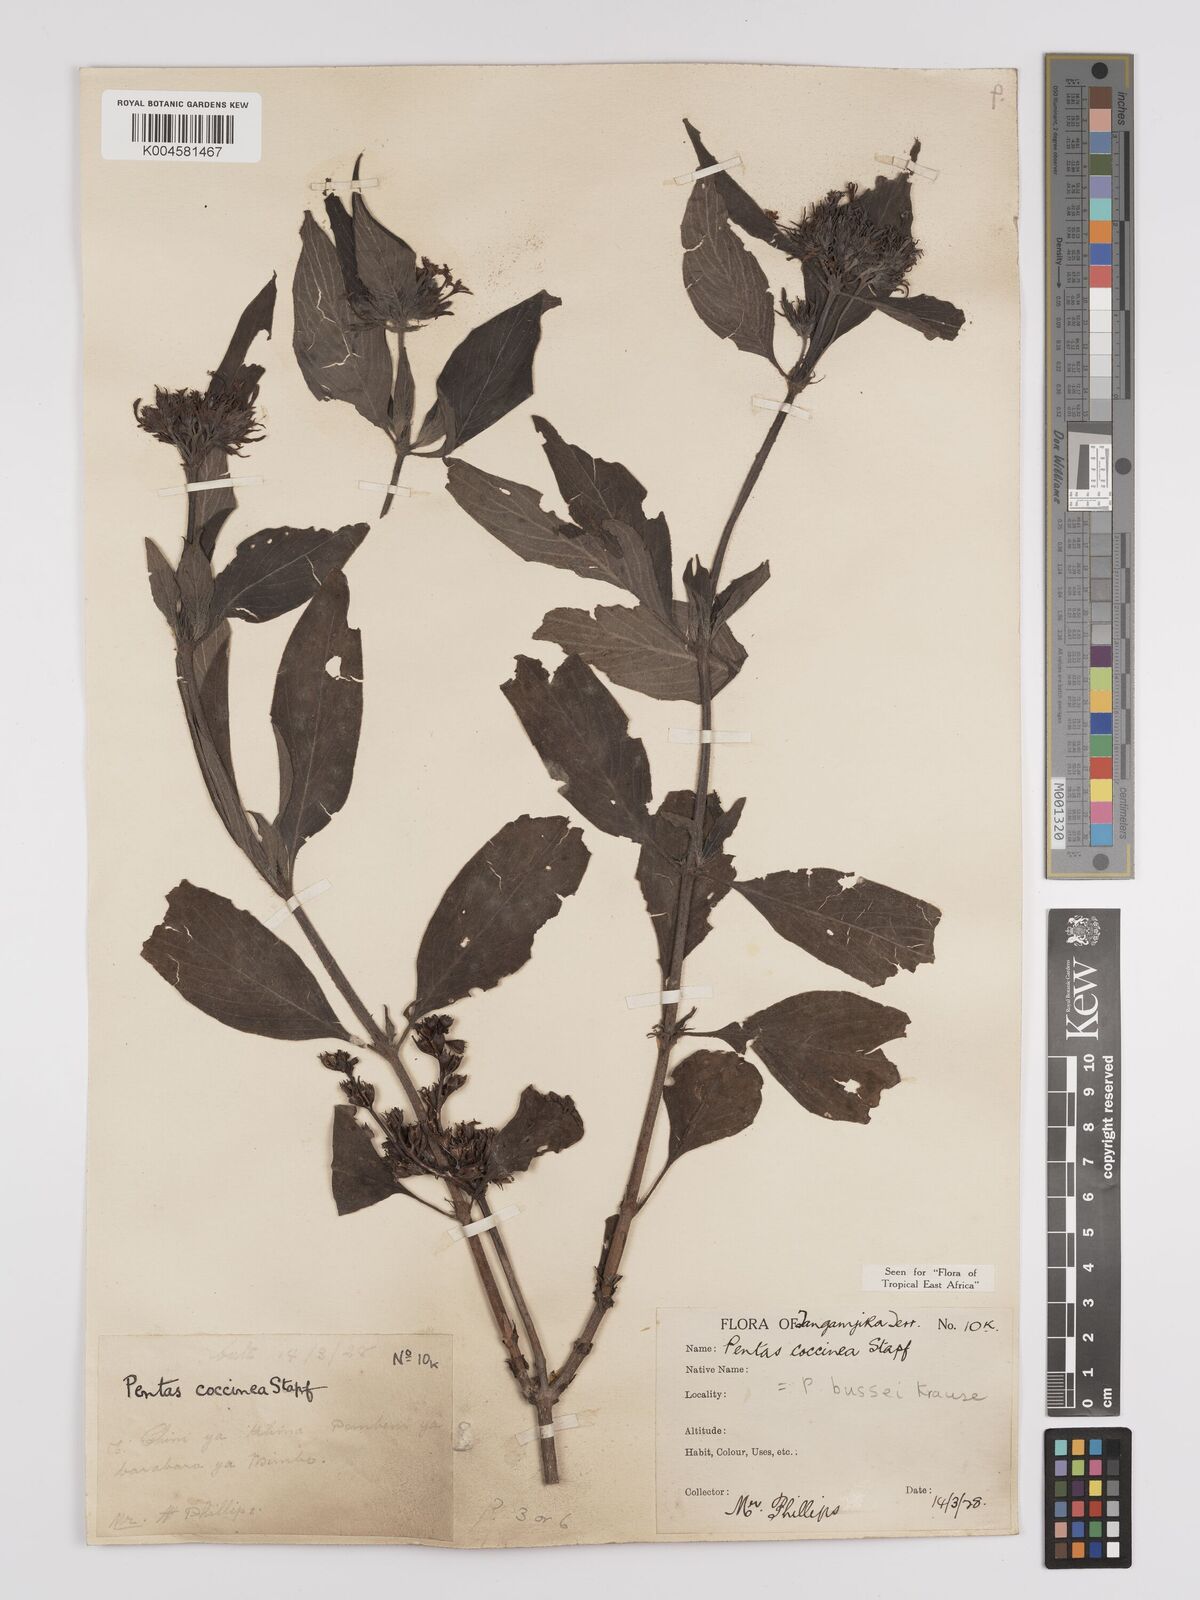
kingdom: Plantae
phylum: Tracheophyta
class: Magnoliopsida
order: Gentianales
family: Rubiaceae
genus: Rhodopentas
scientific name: Rhodopentas bussei
